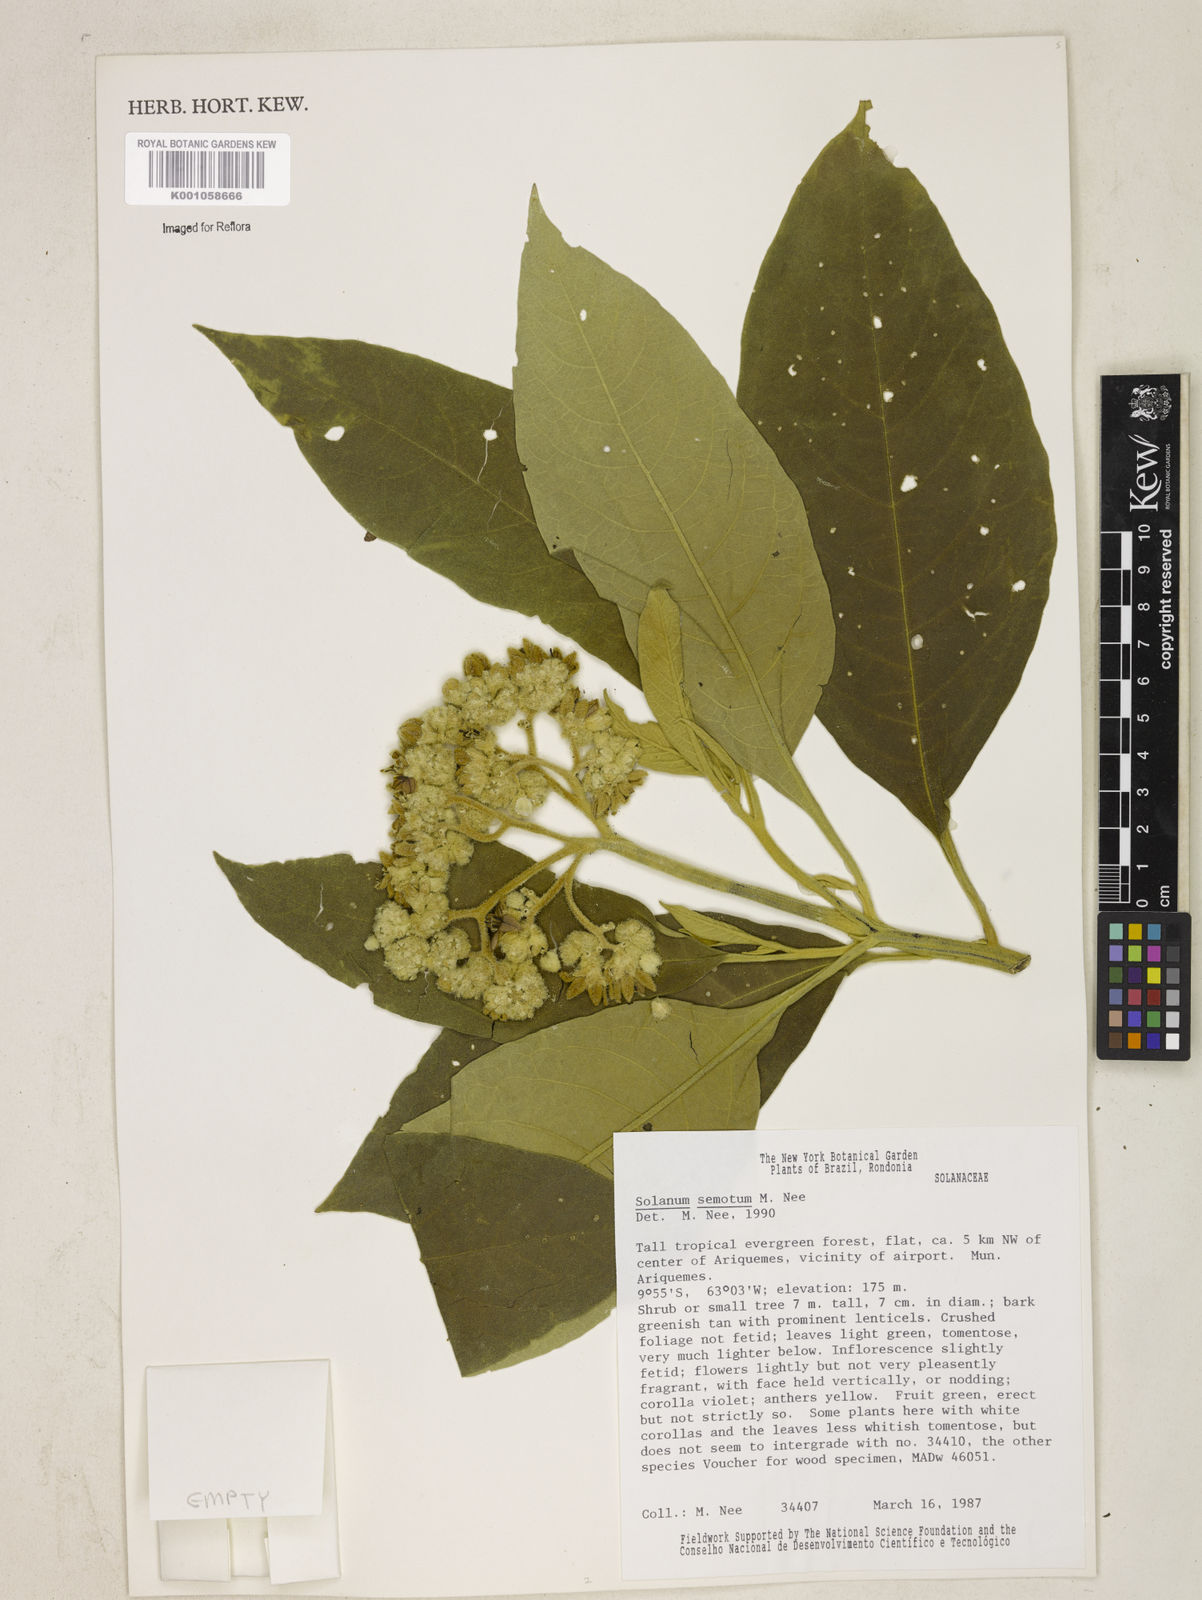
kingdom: Plantae
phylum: Tracheophyta
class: Magnoliopsida
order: Solanales
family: Solanaceae
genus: Solanum
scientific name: Solanum semotum
